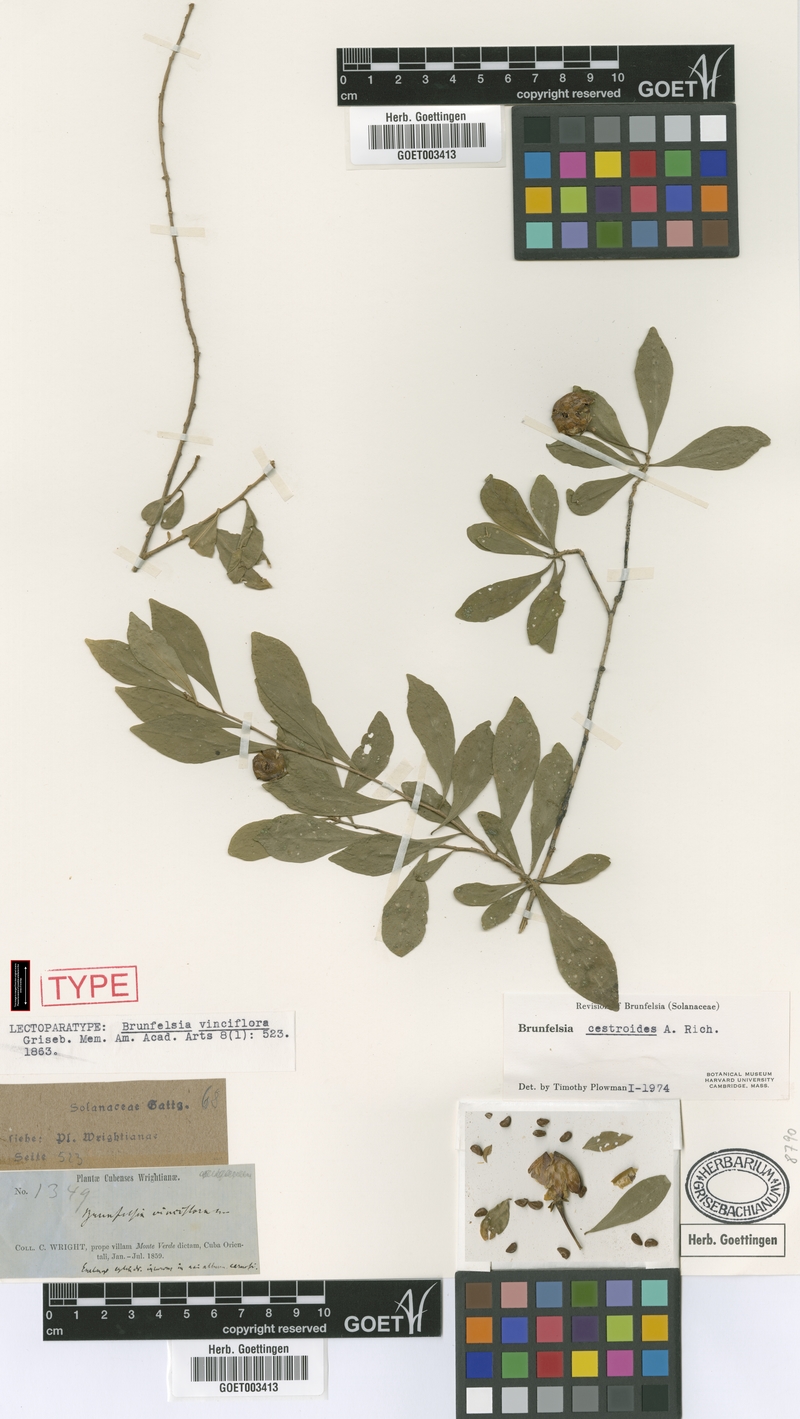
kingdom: Plantae
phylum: Tracheophyta
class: Magnoliopsida
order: Solanales
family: Solanaceae
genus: Brunfelsia
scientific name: Brunfelsia cestroides
